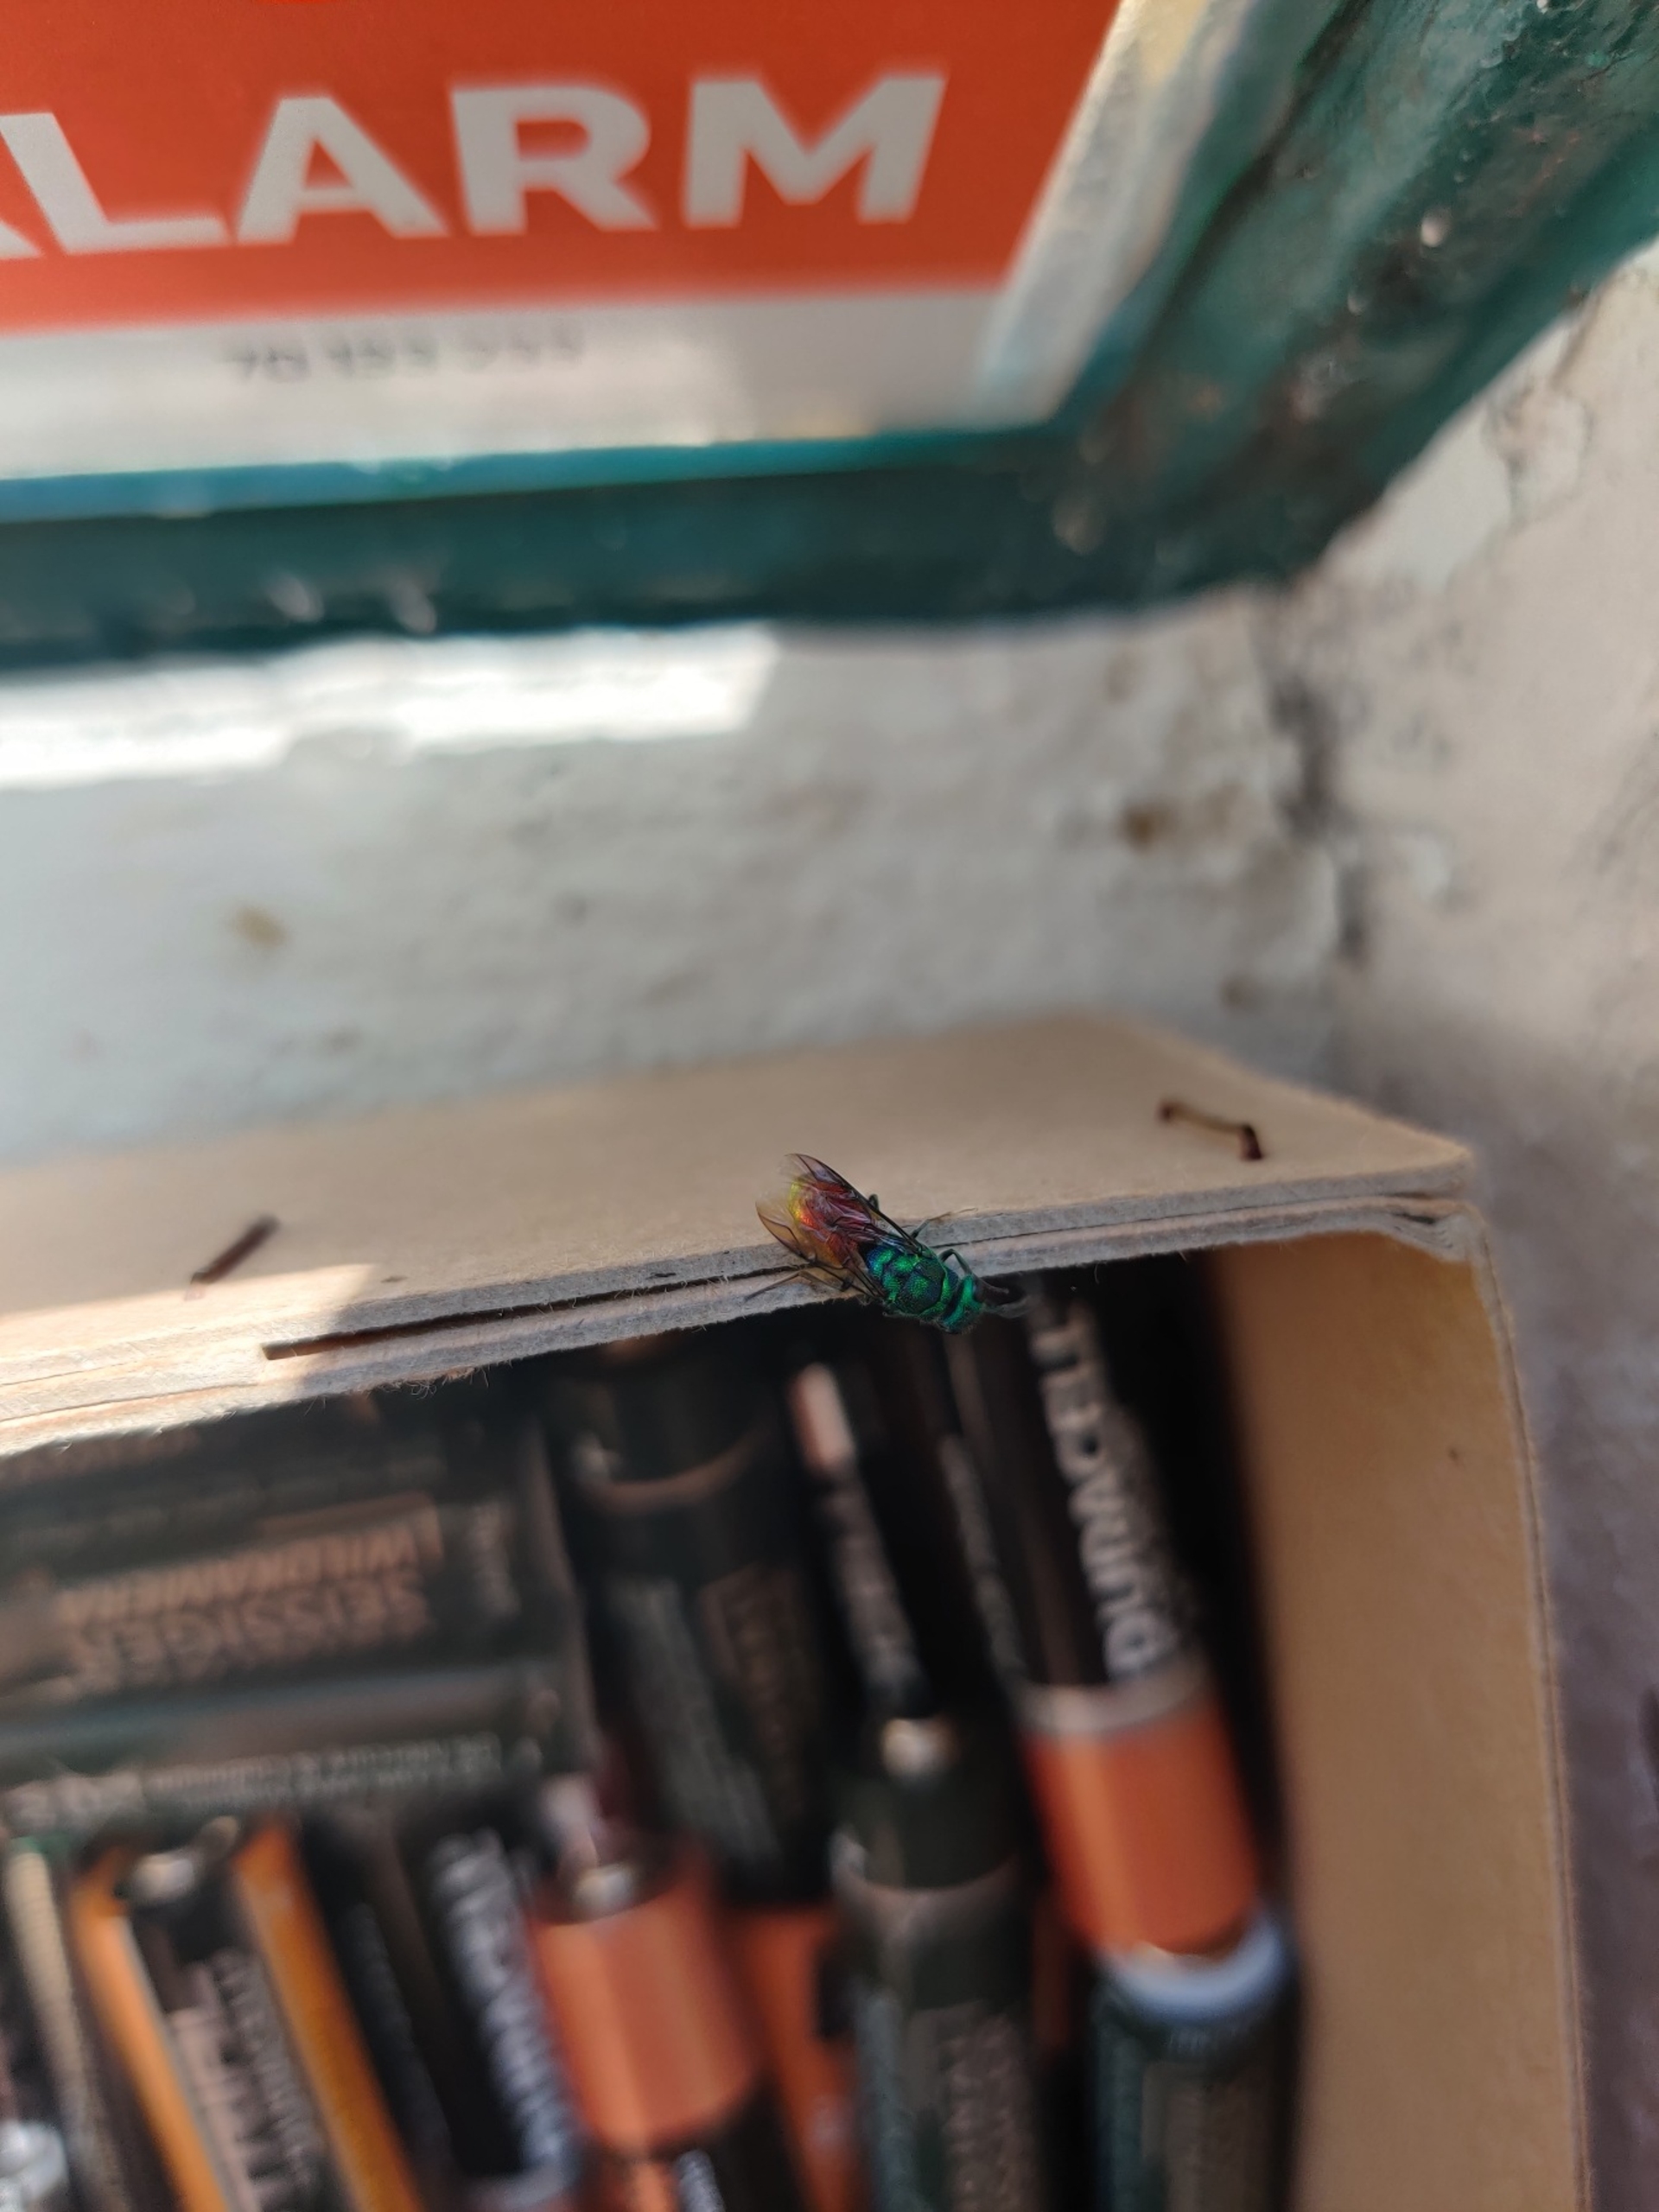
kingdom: Animalia
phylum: Arthropoda
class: Insecta
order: Hymenoptera
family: Chrysididae
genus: Chrysis
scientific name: Chrysis
